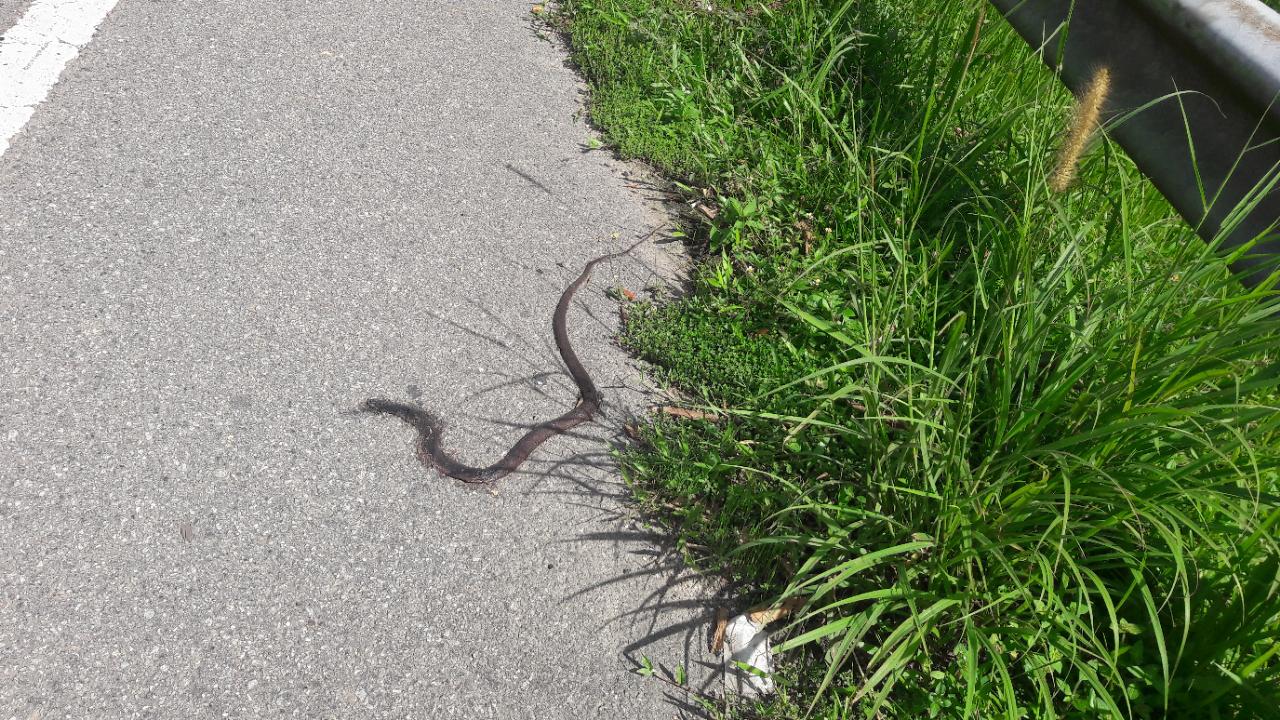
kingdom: Animalia
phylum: Chordata
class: Squamata
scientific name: Squamata
